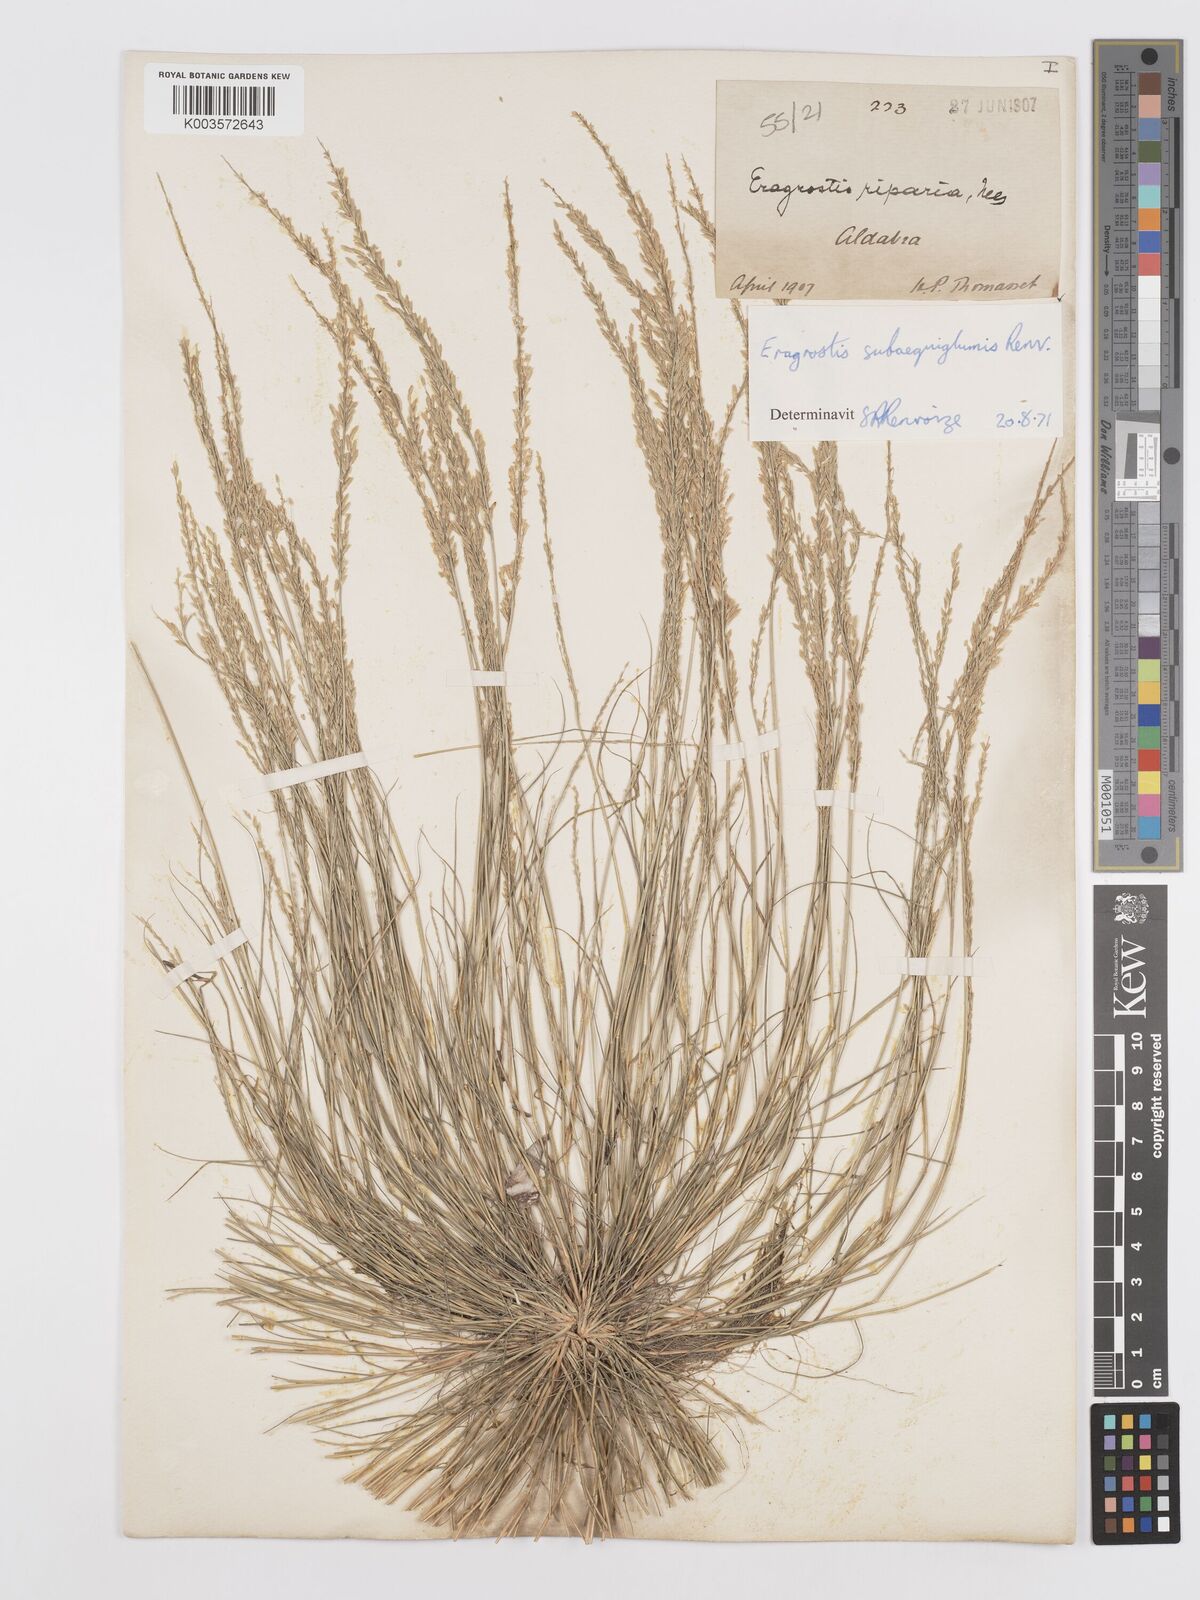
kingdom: Plantae
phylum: Tracheophyta
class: Liliopsida
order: Poales
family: Poaceae
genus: Eragrostis
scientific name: Eragrostis subaequiglumis
